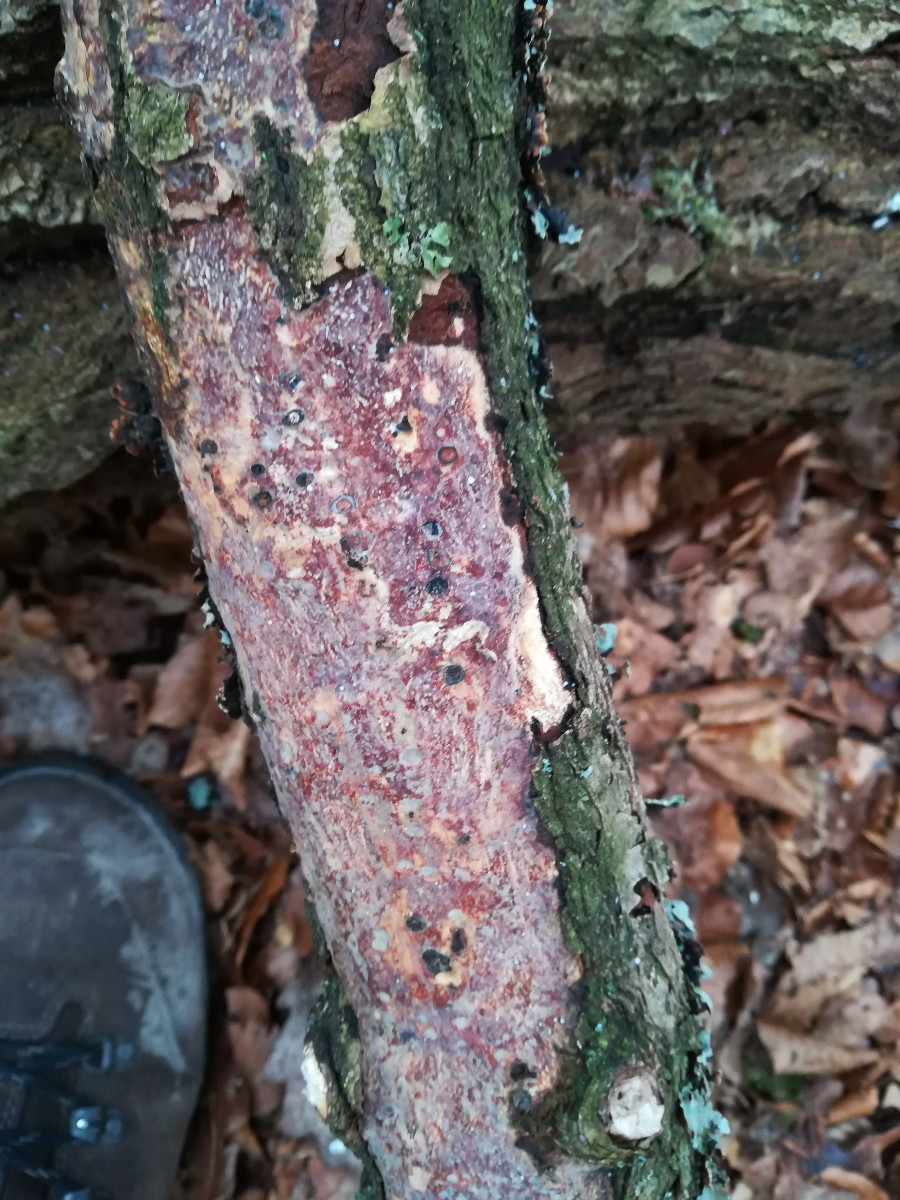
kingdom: Fungi
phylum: Basidiomycota
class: Agaricomycetes
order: Corticiales
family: Vuilleminiaceae
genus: Vuilleminia
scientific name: Vuilleminia comedens
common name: almindelig barksprænger
